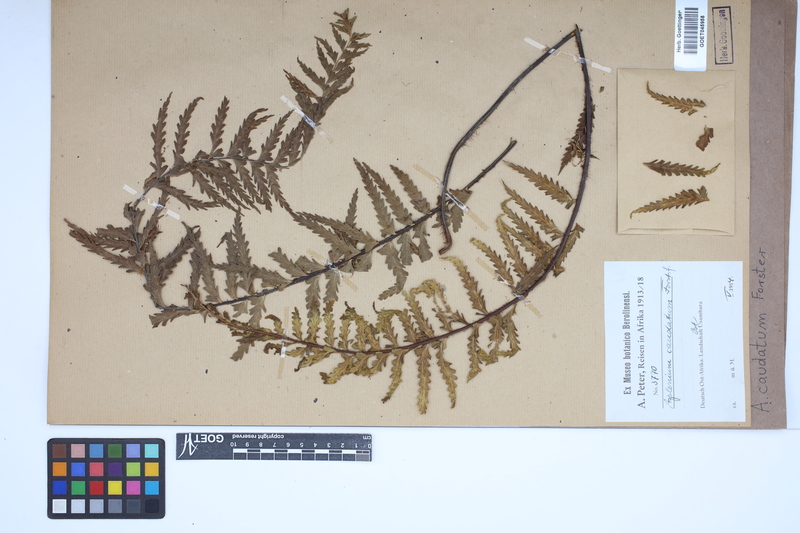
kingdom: Plantae
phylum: Tracheophyta
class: Polypodiopsida
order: Polypodiales
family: Aspleniaceae
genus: Asplenium
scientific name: Asplenium caudatum
